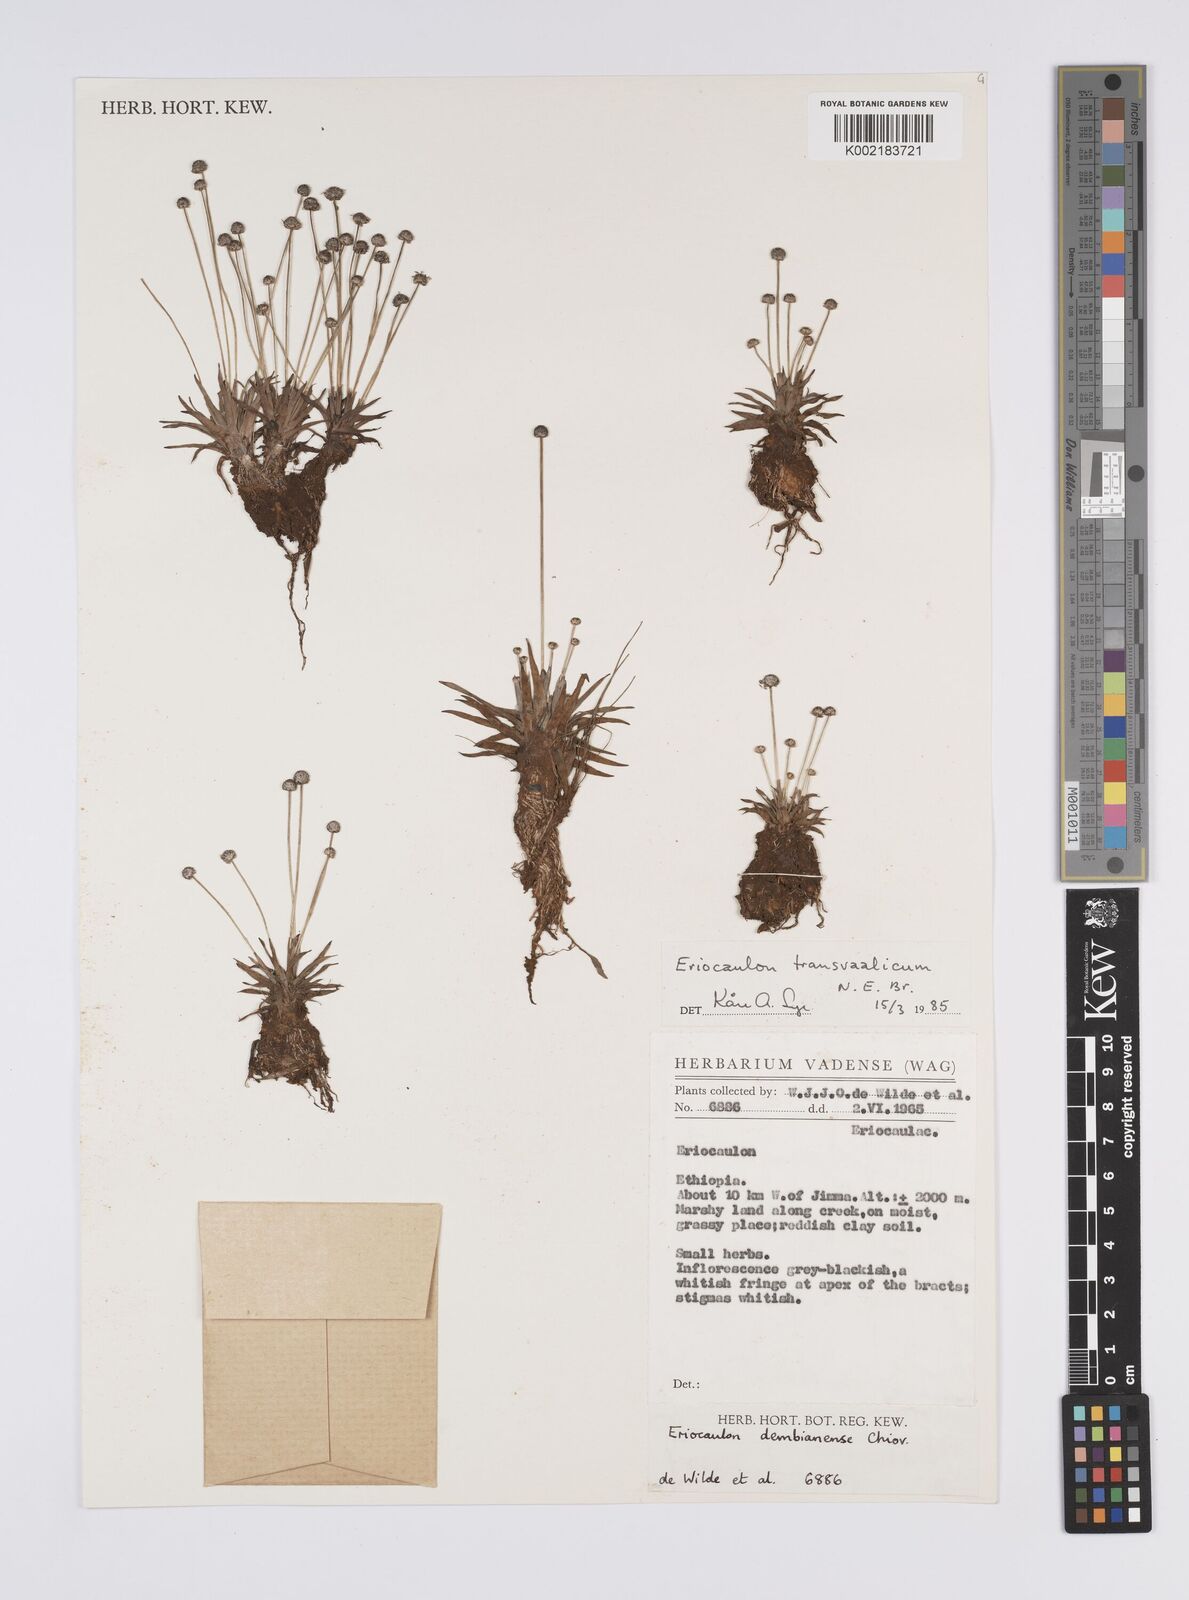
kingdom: Plantae
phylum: Tracheophyta
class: Liliopsida
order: Poales
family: Eriocaulaceae
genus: Eriocaulon
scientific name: Eriocaulon transvaalicum
